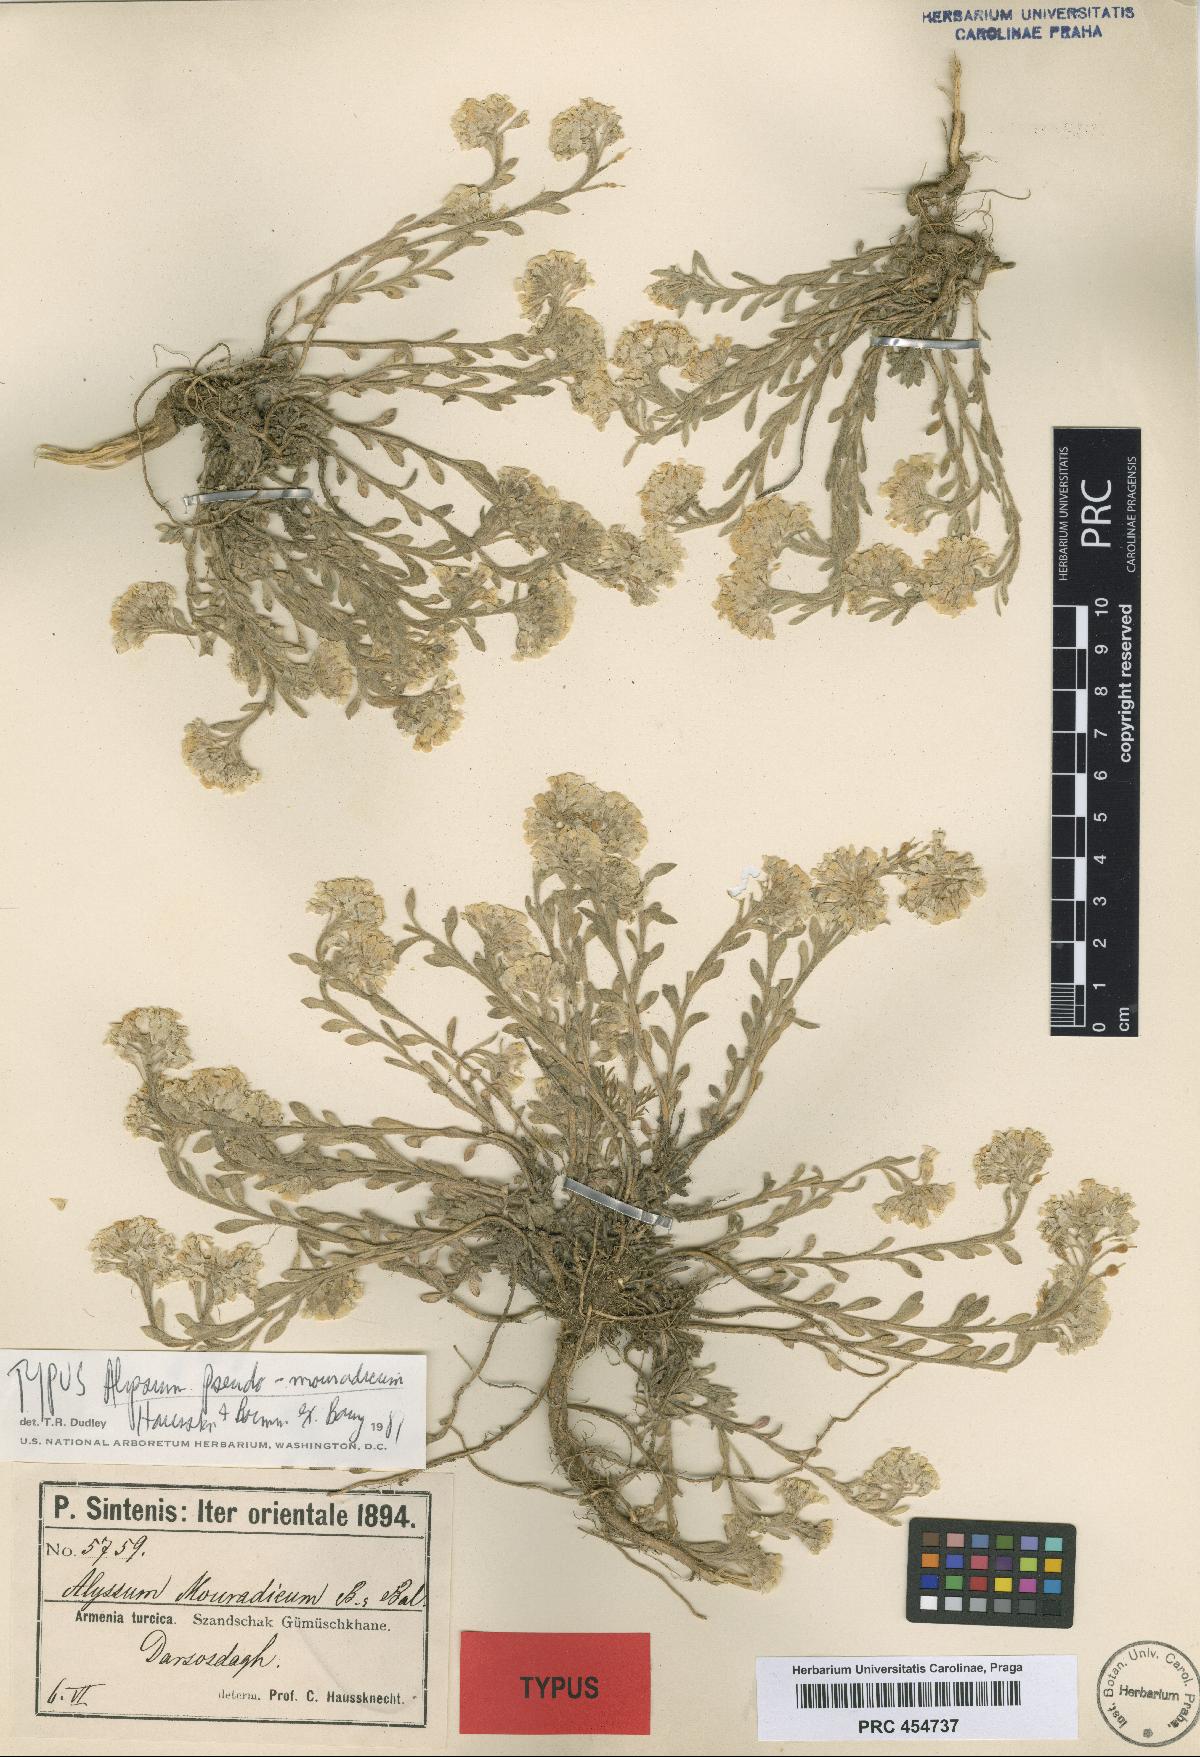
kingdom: Plantae
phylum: Tracheophyta
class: Magnoliopsida
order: Brassicales
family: Brassicaceae
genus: Alyssum
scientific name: Alyssum pseudomouradicum
